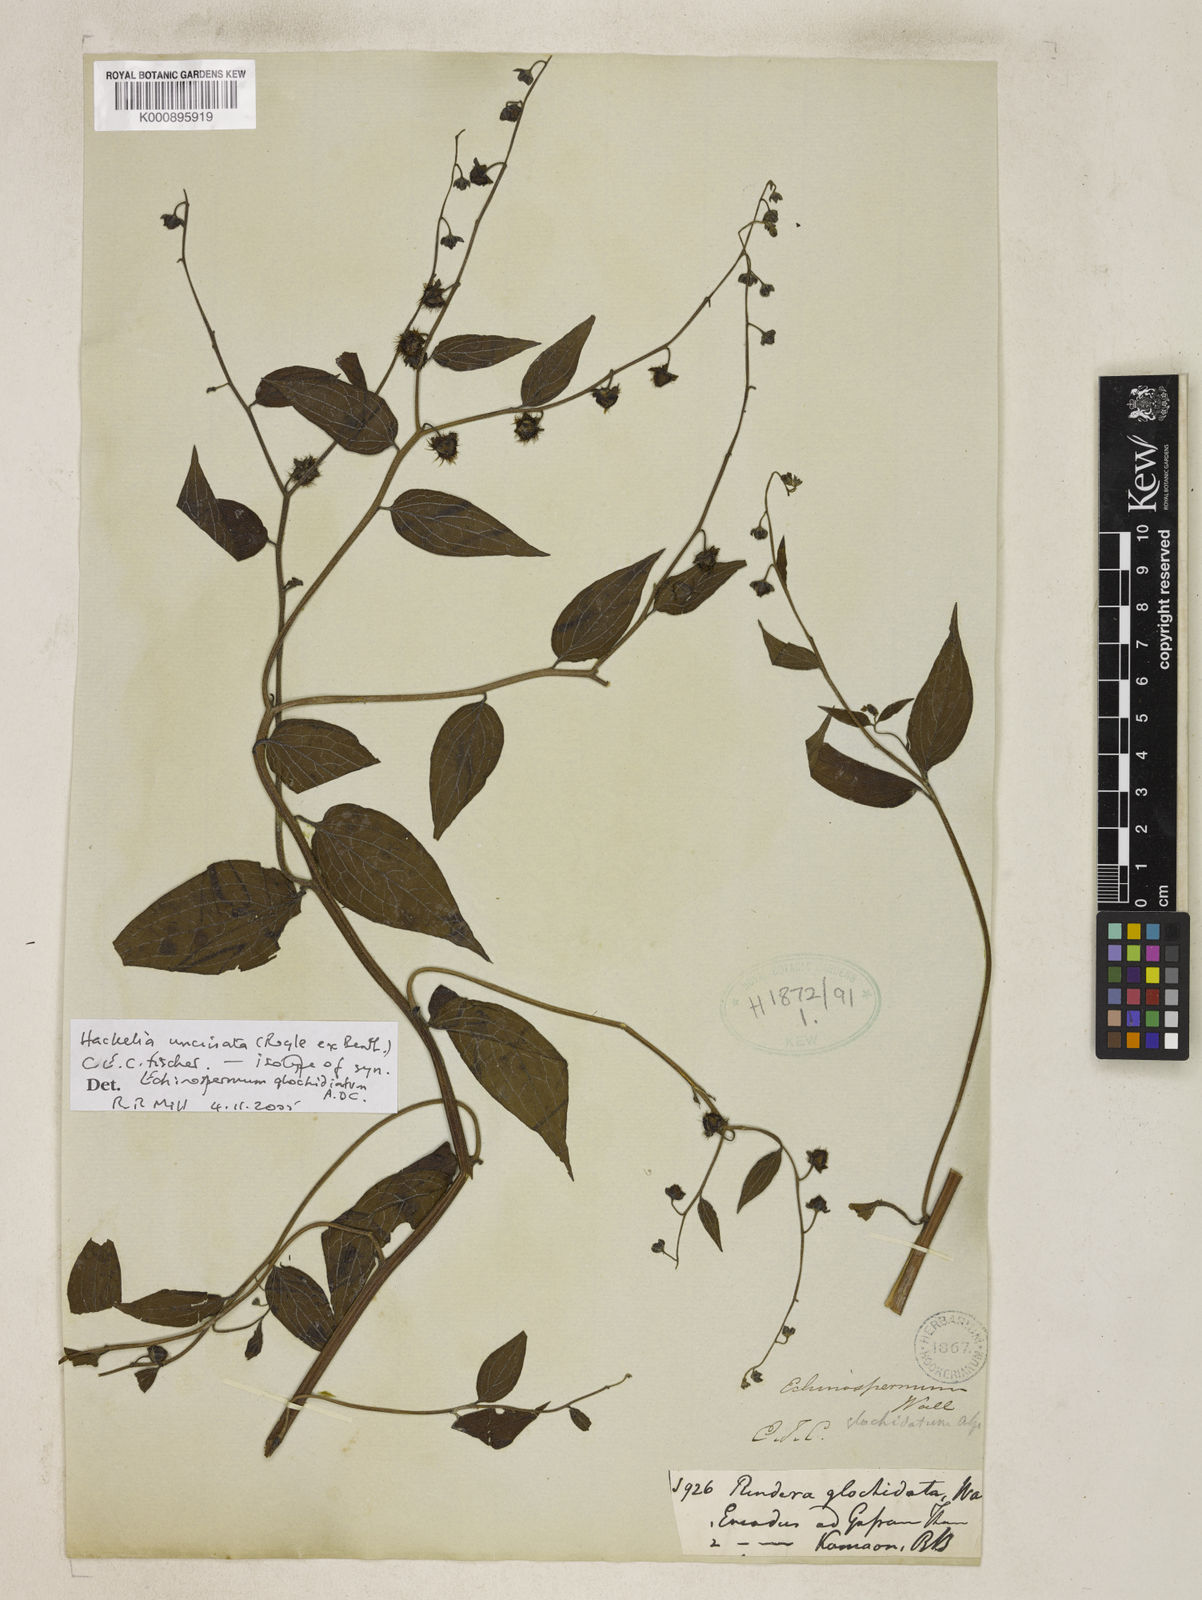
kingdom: Plantae
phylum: Tracheophyta
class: Magnoliopsida
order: Boraginales
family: Boraginaceae
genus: Hackelia
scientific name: Hackelia uncinata
